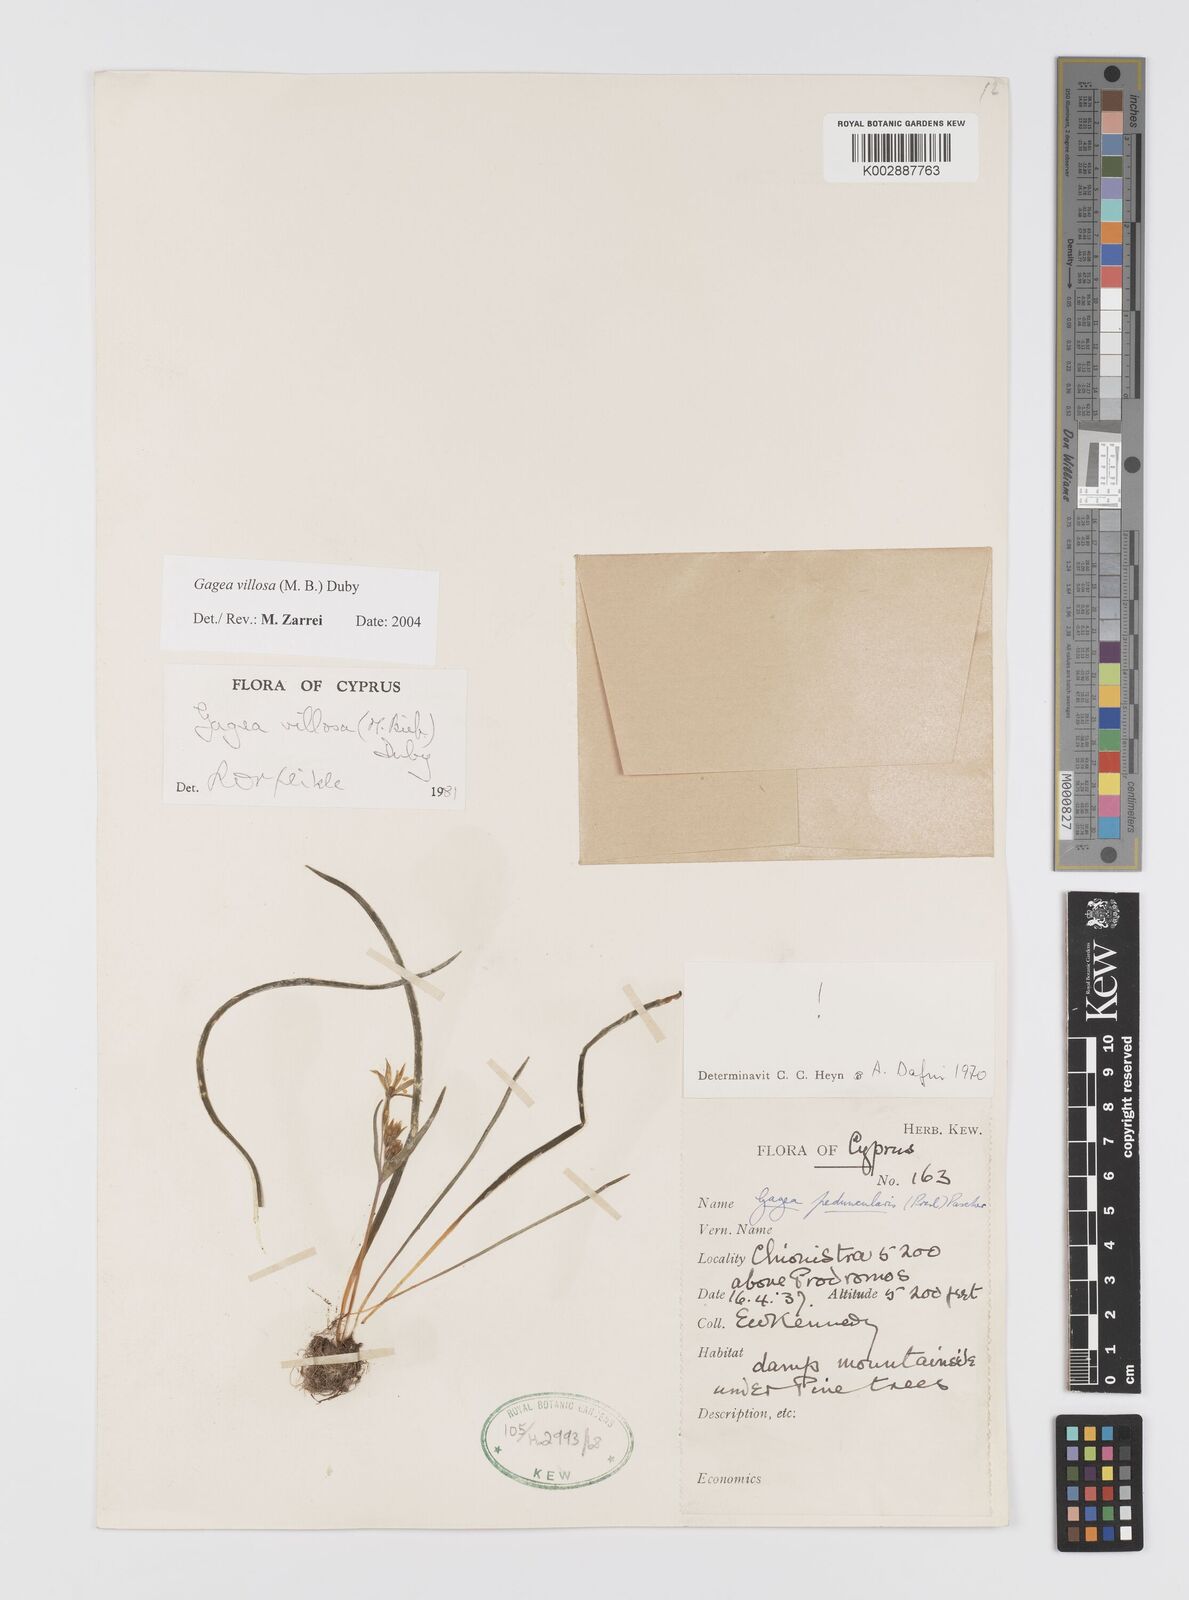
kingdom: Plantae
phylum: Tracheophyta
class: Liliopsida
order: Liliales
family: Liliaceae
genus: Gagea
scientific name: Gagea villosa
